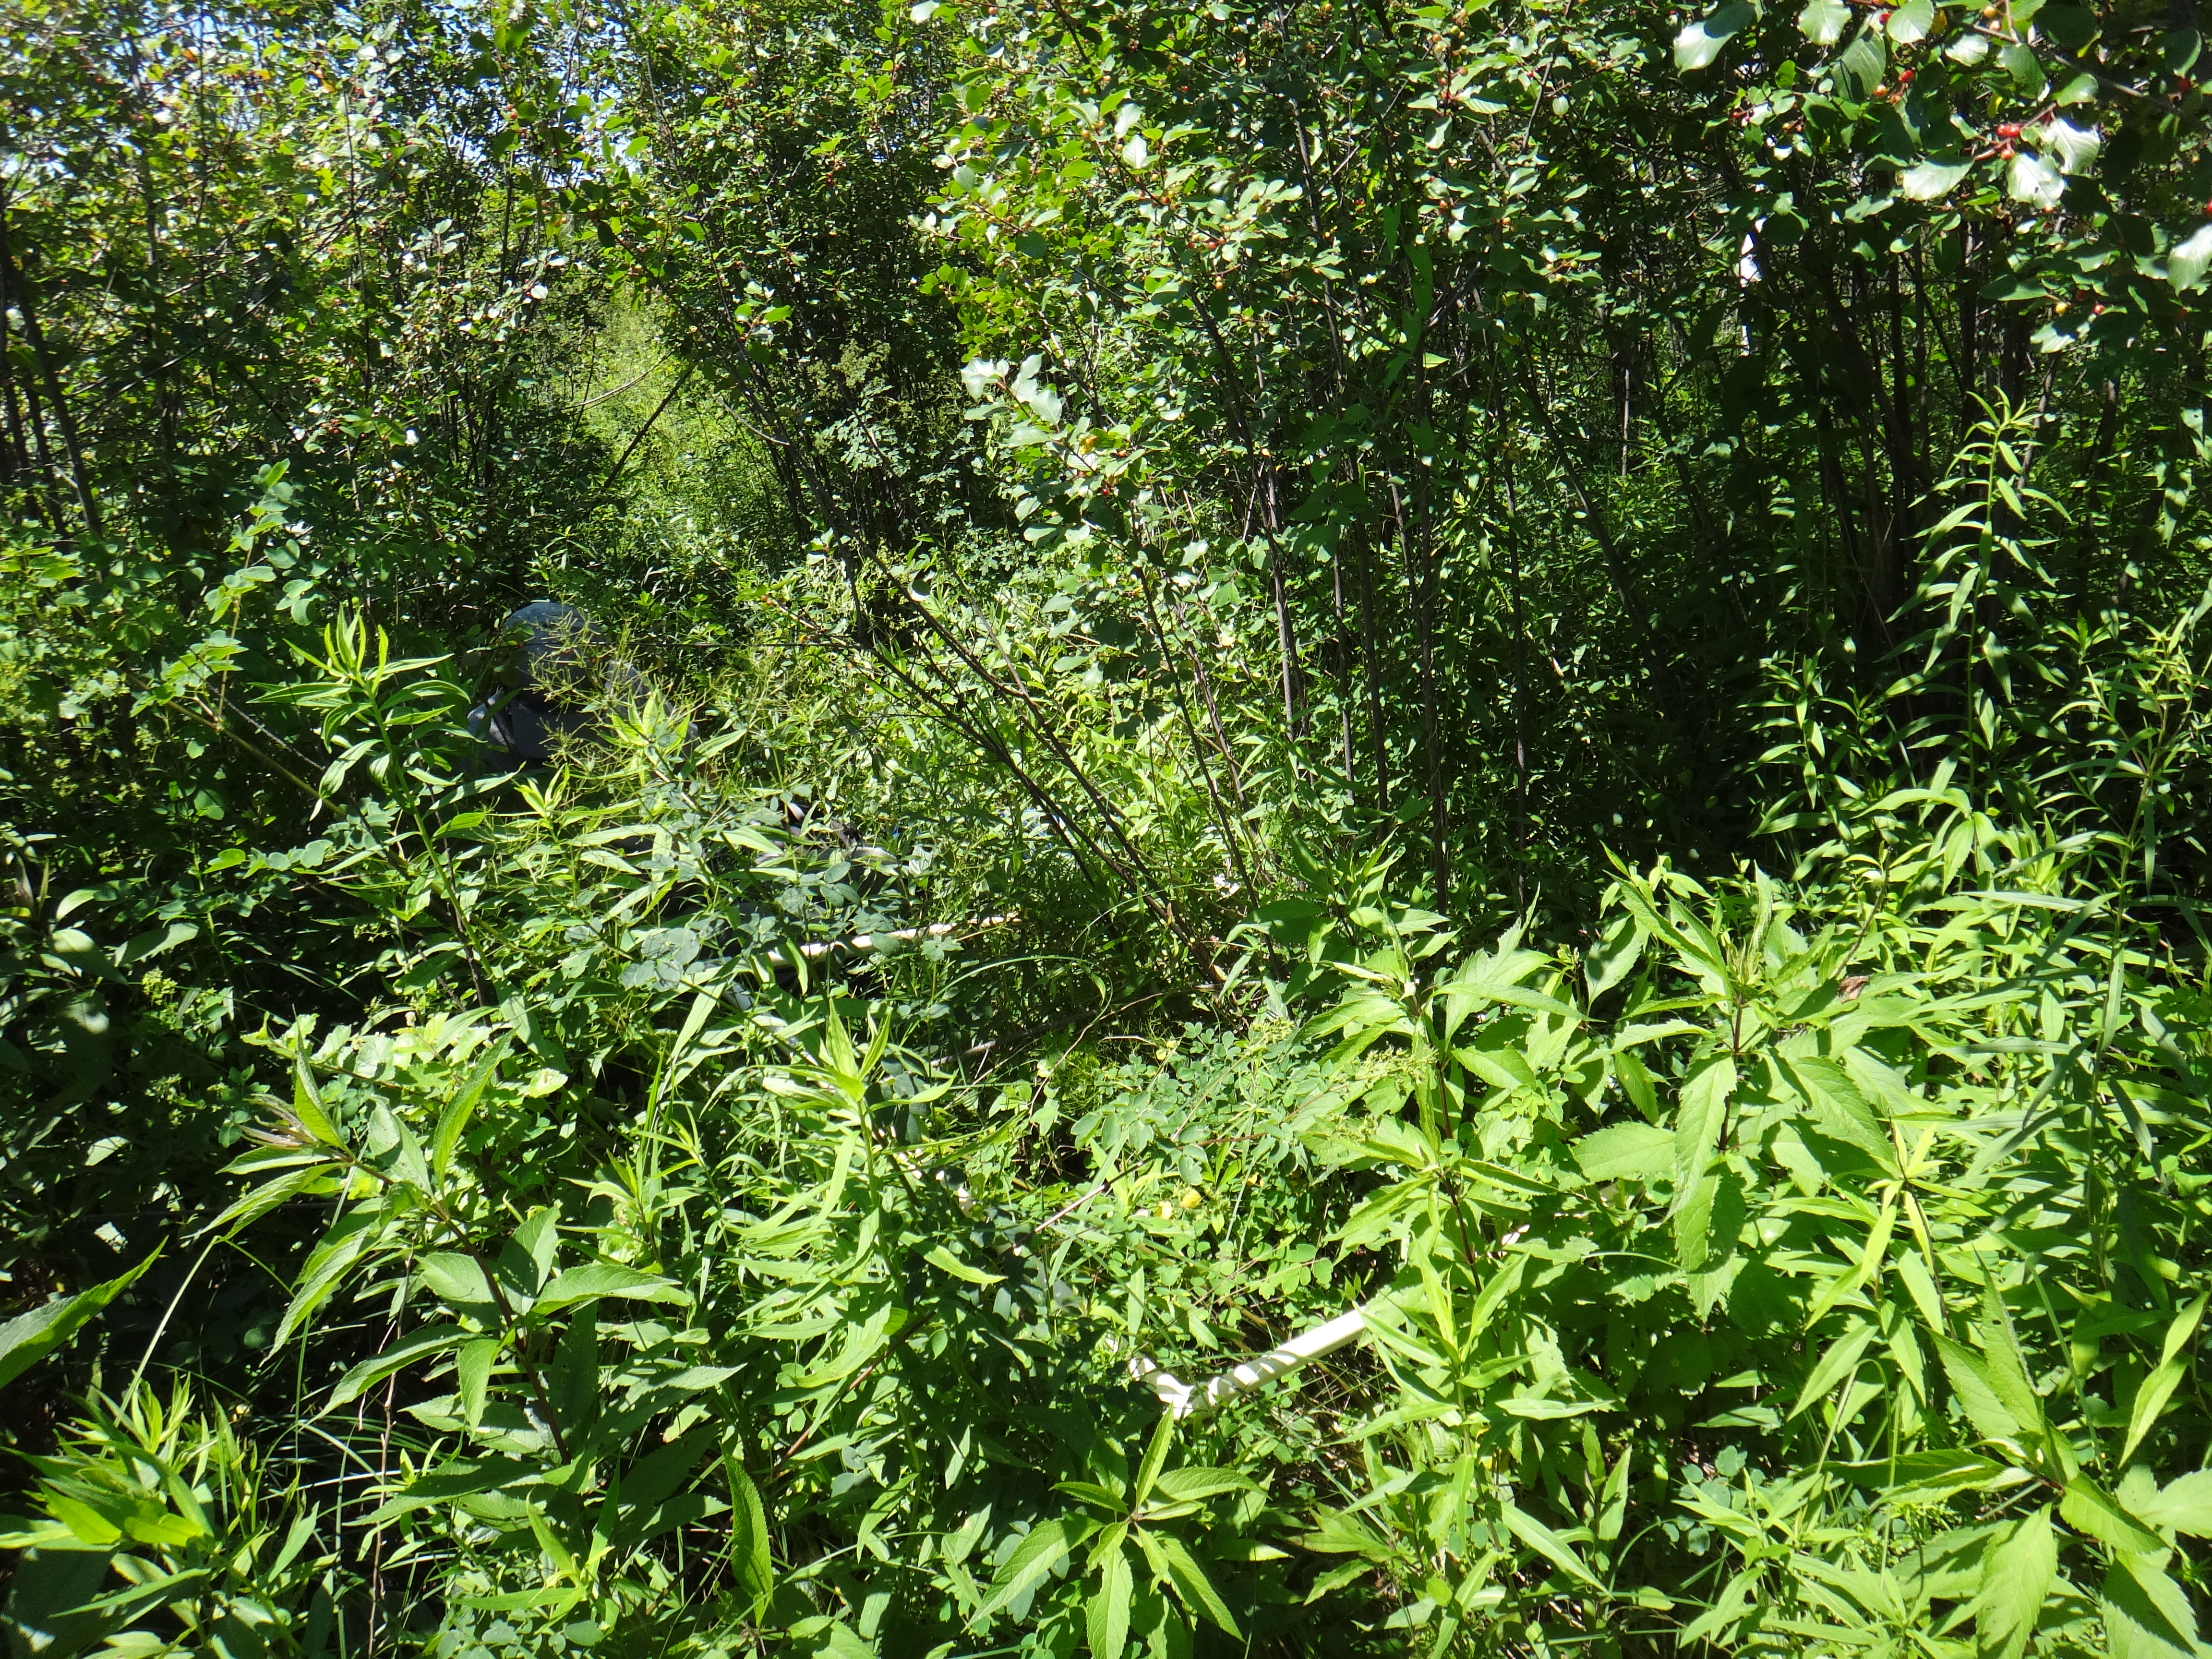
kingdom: Plantae
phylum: Tracheophyta
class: Magnoliopsida
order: Gentianales
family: Rubiaceae
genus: Galium
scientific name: Galium asprellum
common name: Rough bedstraw
